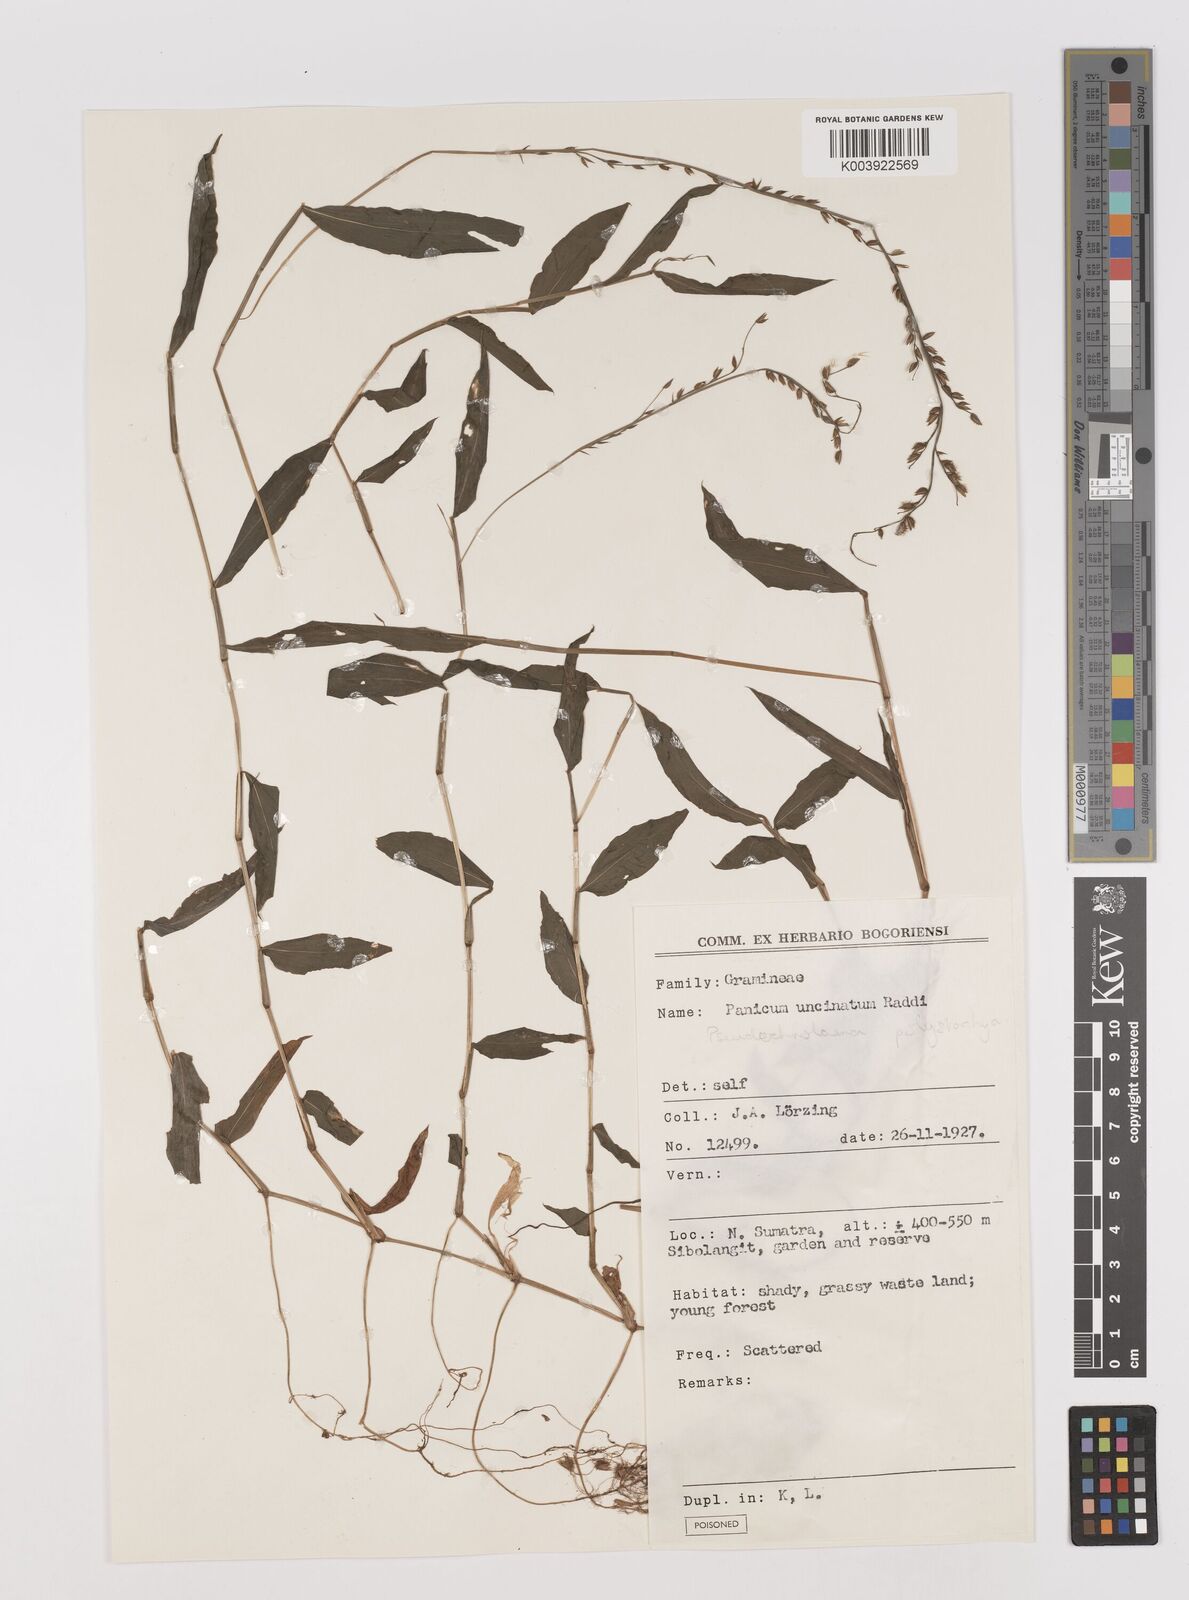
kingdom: Plantae
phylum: Tracheophyta
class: Liliopsida
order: Poales
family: Poaceae
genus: Pseudechinolaena
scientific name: Pseudechinolaena polystachya
